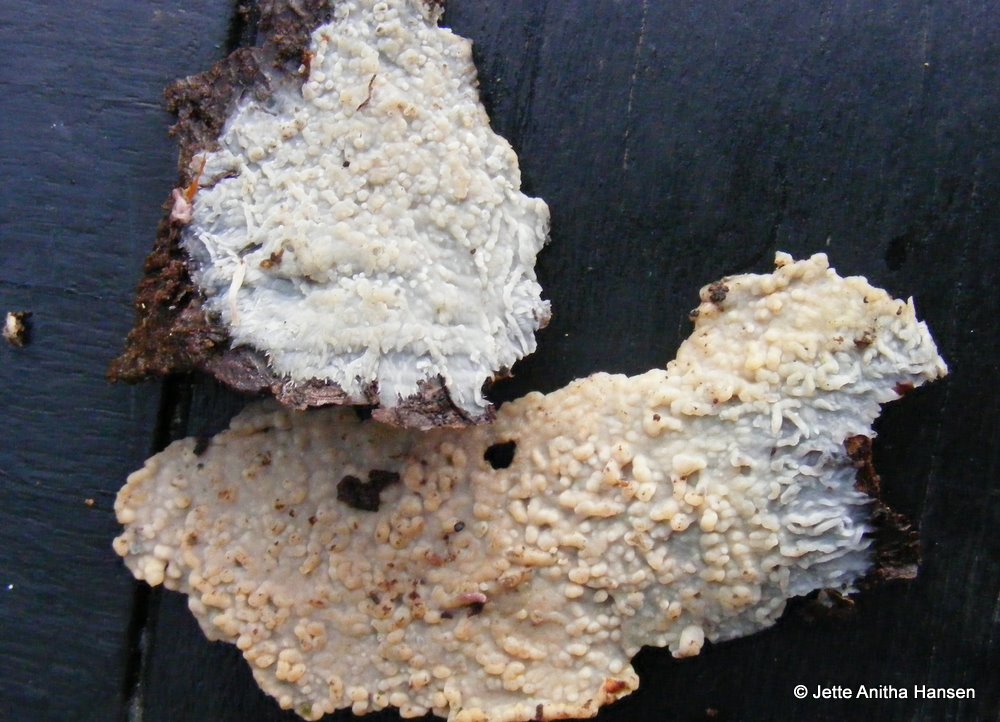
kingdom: Fungi
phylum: Basidiomycota
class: Agaricomycetes
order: Agaricales
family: Radulomycetaceae
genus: Radulomyces
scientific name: Radulomyces confluens
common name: glat naftalinskind
